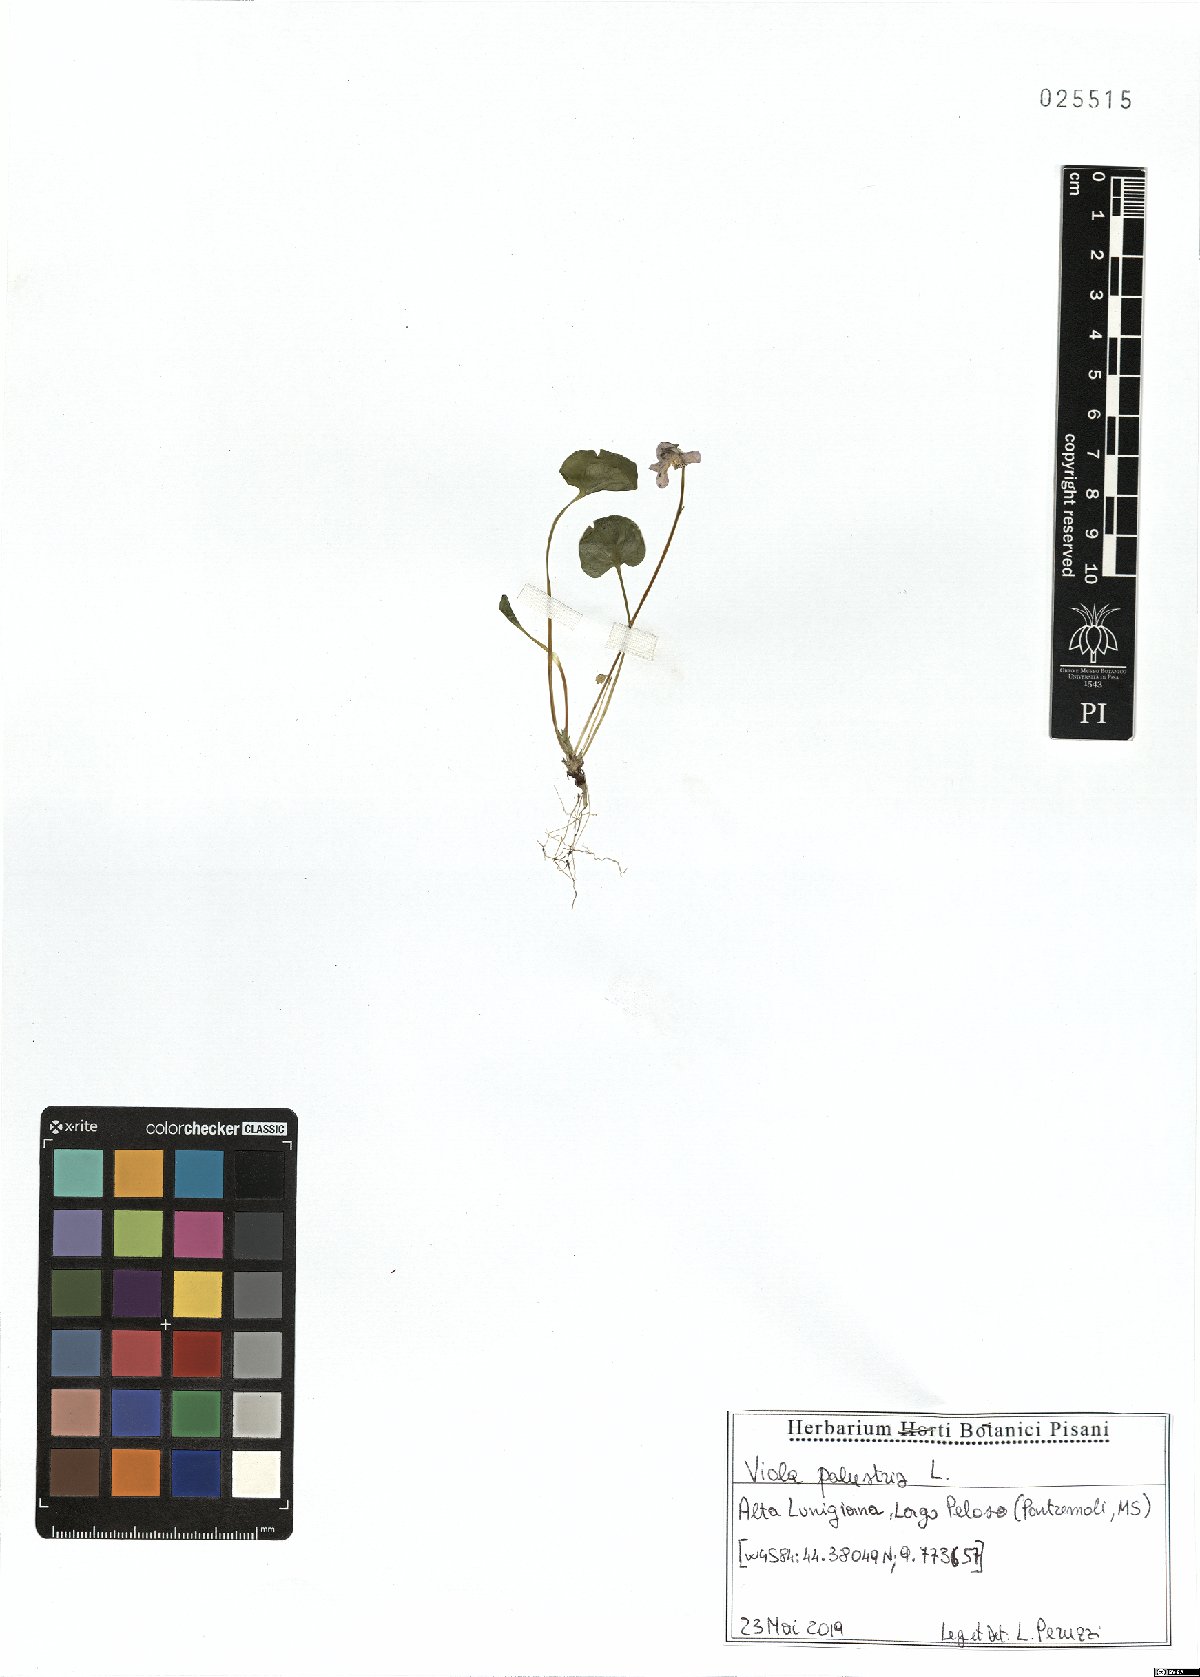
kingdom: Plantae
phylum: Tracheophyta
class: Magnoliopsida
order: Malpighiales
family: Violaceae
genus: Viola
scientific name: Viola palustris
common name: Marsh violet
